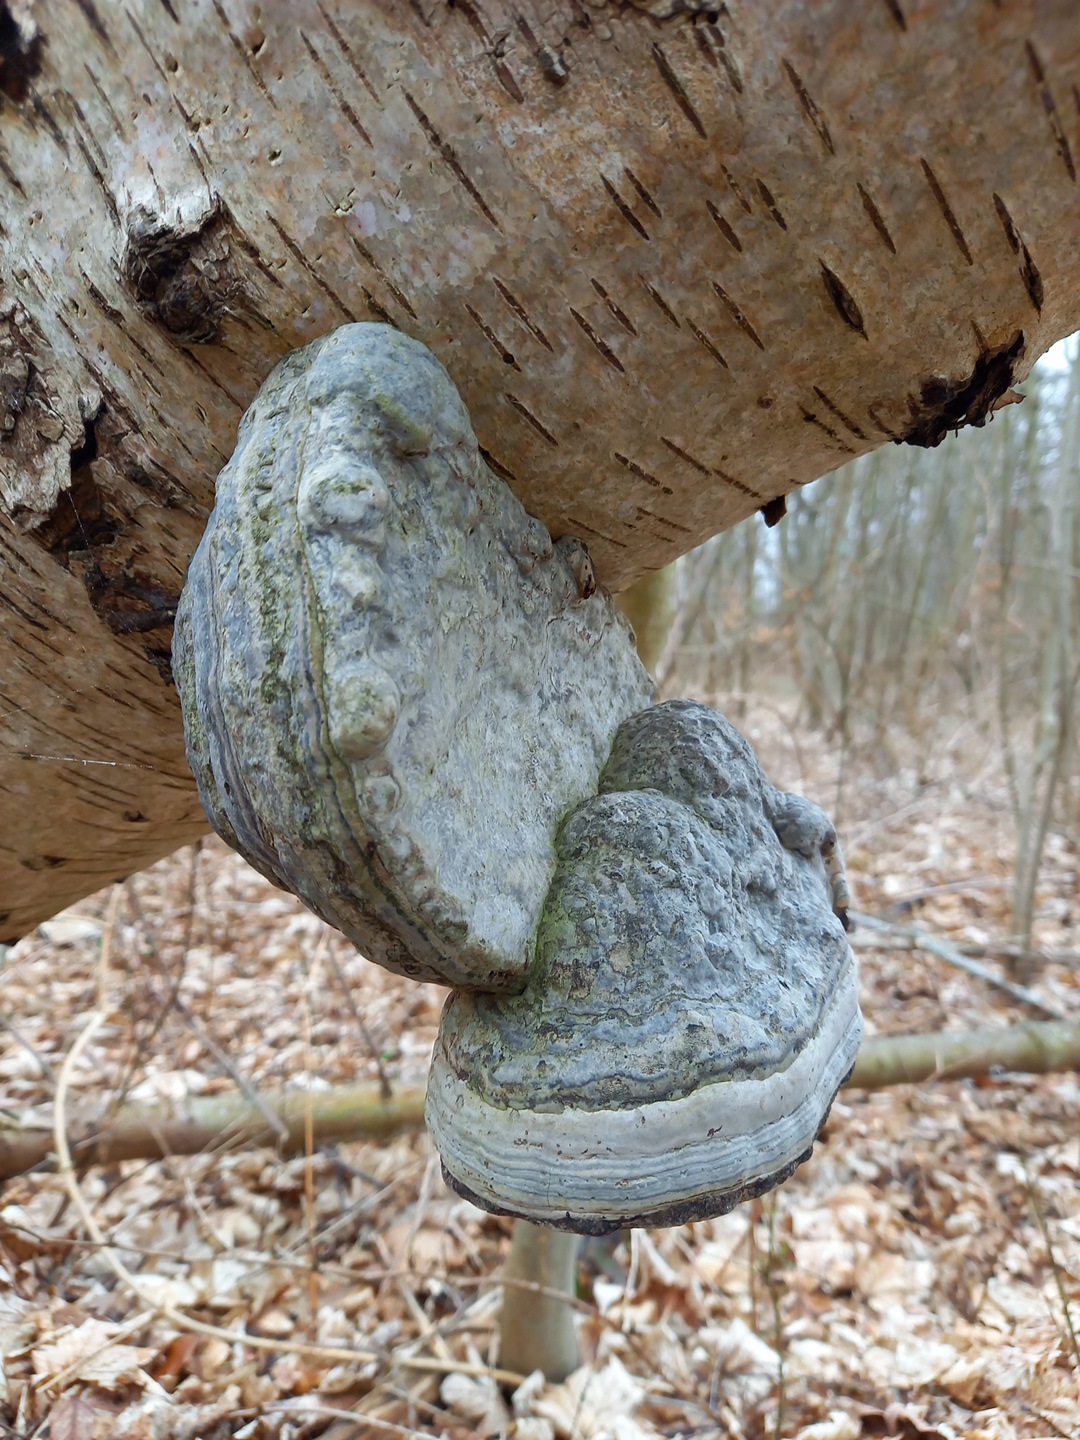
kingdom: Fungi
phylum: Basidiomycota
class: Agaricomycetes
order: Polyporales
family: Polyporaceae
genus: Fomes
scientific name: Fomes fomentarius
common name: tøndersvamp
